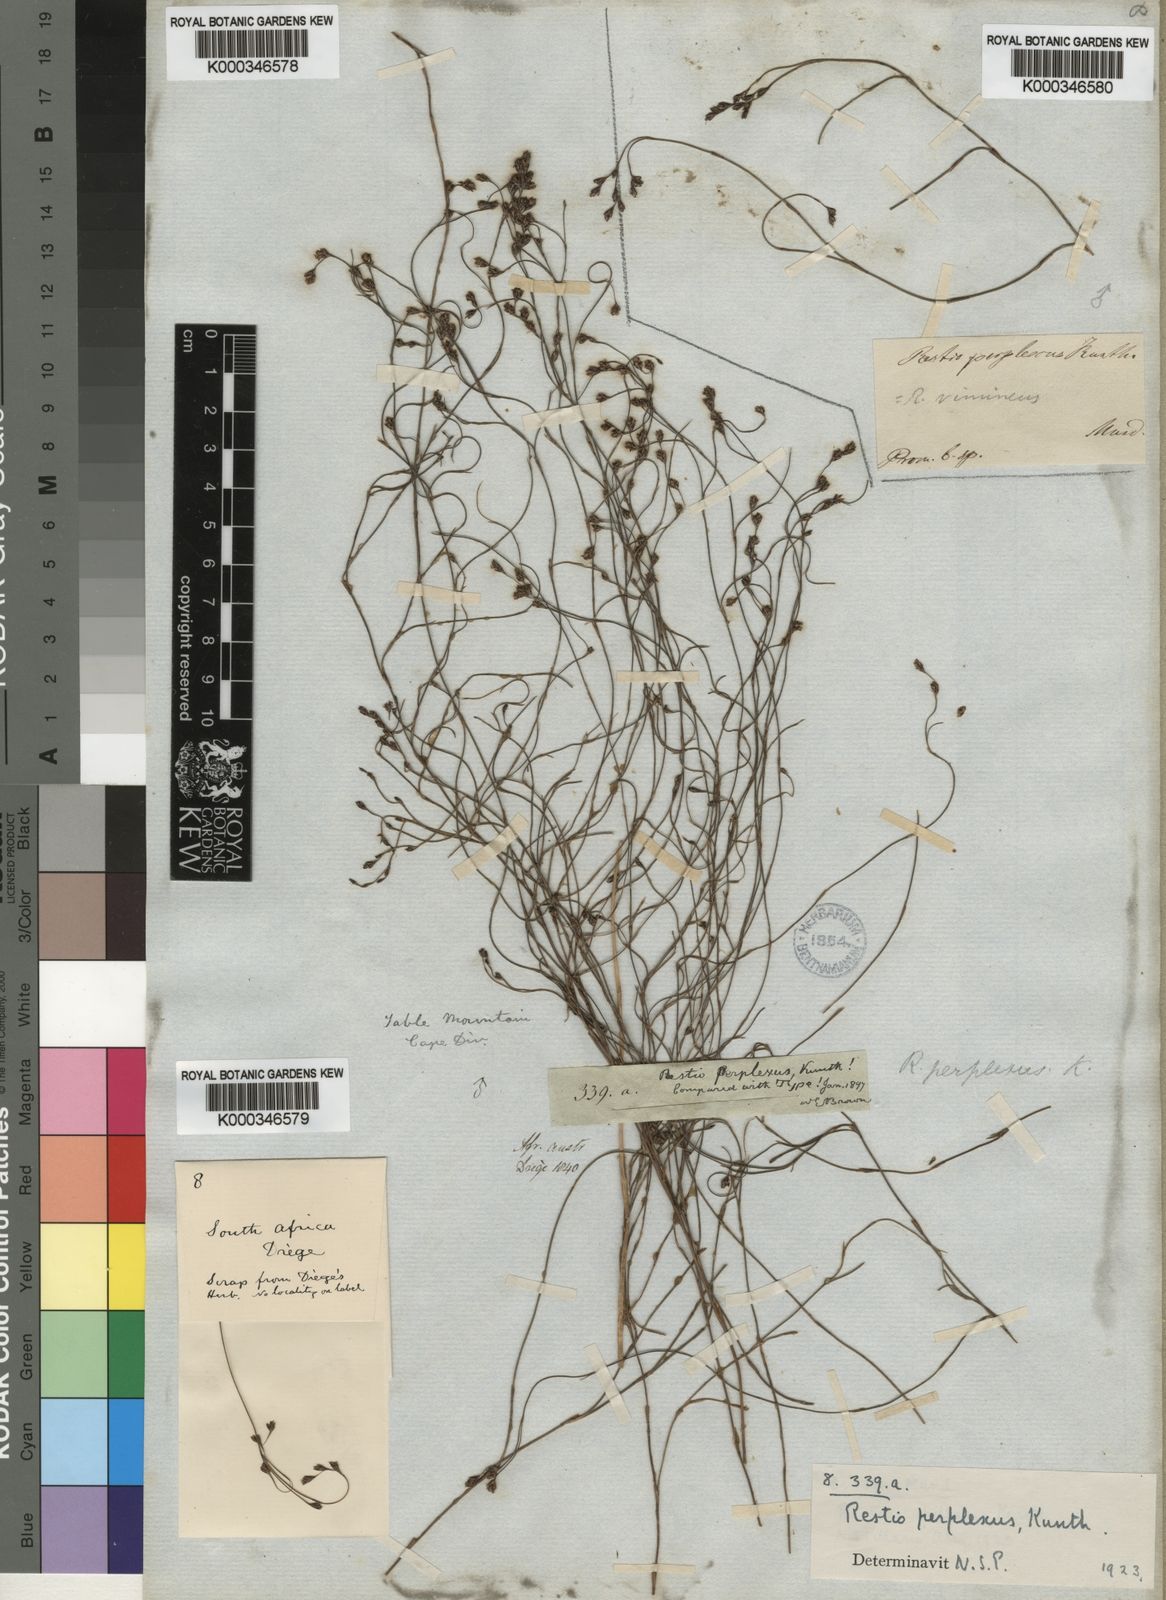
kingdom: Plantae
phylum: Tracheophyta
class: Liliopsida
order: Poales
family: Restionaceae
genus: Restio
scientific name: Restio perplexus
